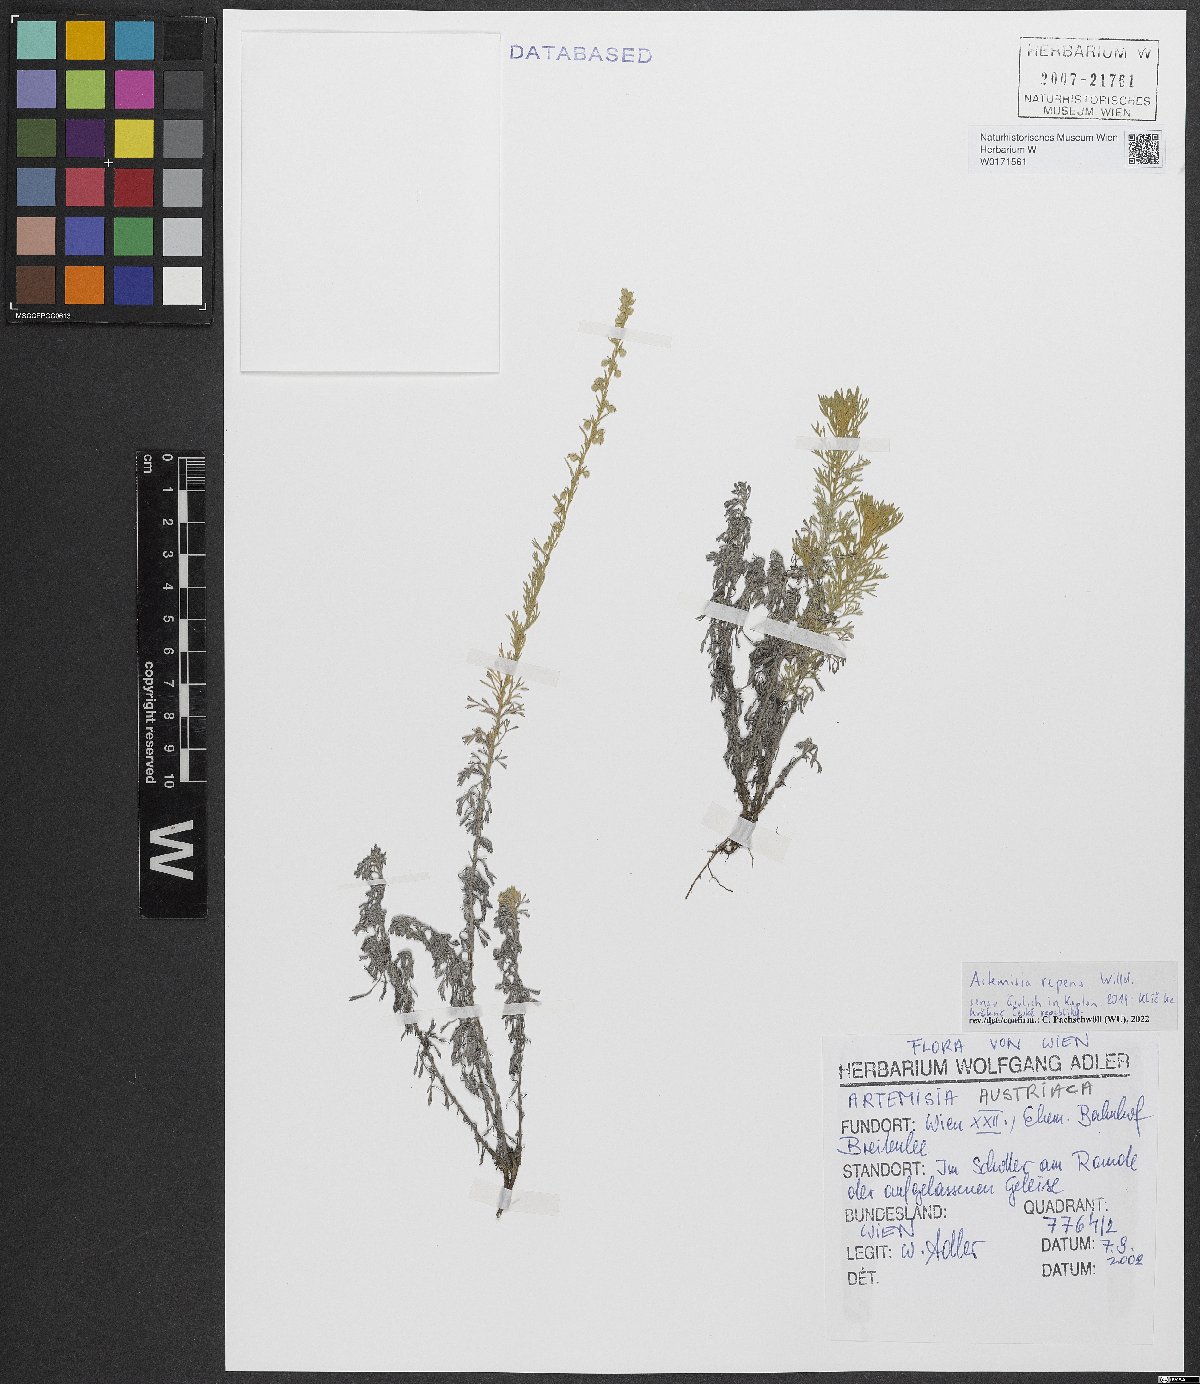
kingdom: Plantae
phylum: Tracheophyta
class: Magnoliopsida
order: Asterales
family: Asteraceae
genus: Artemisia
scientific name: Artemisia repens
